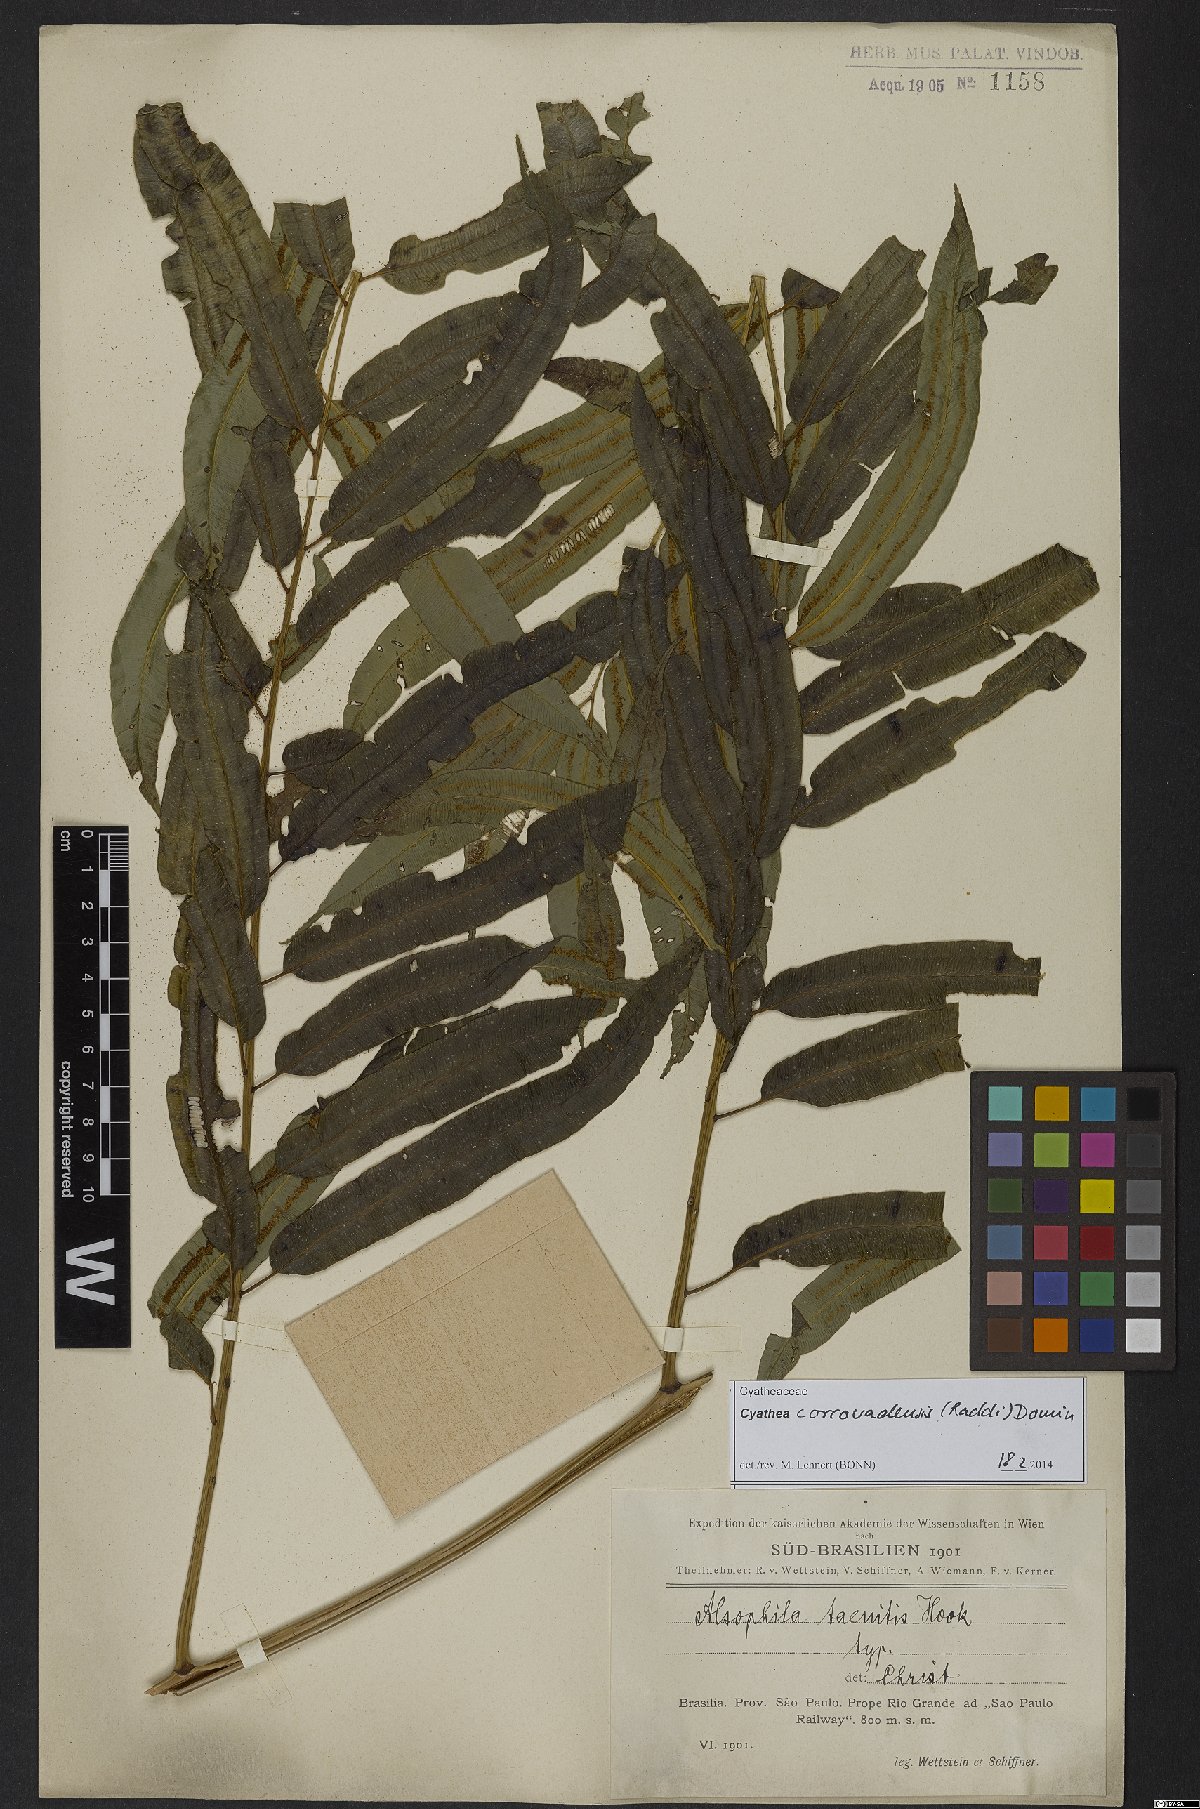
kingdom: Plantae
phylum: Tracheophyta
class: Polypodiopsida
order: Cyatheales
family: Cyatheaceae
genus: Cyathea
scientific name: Cyathea corcovadensis
